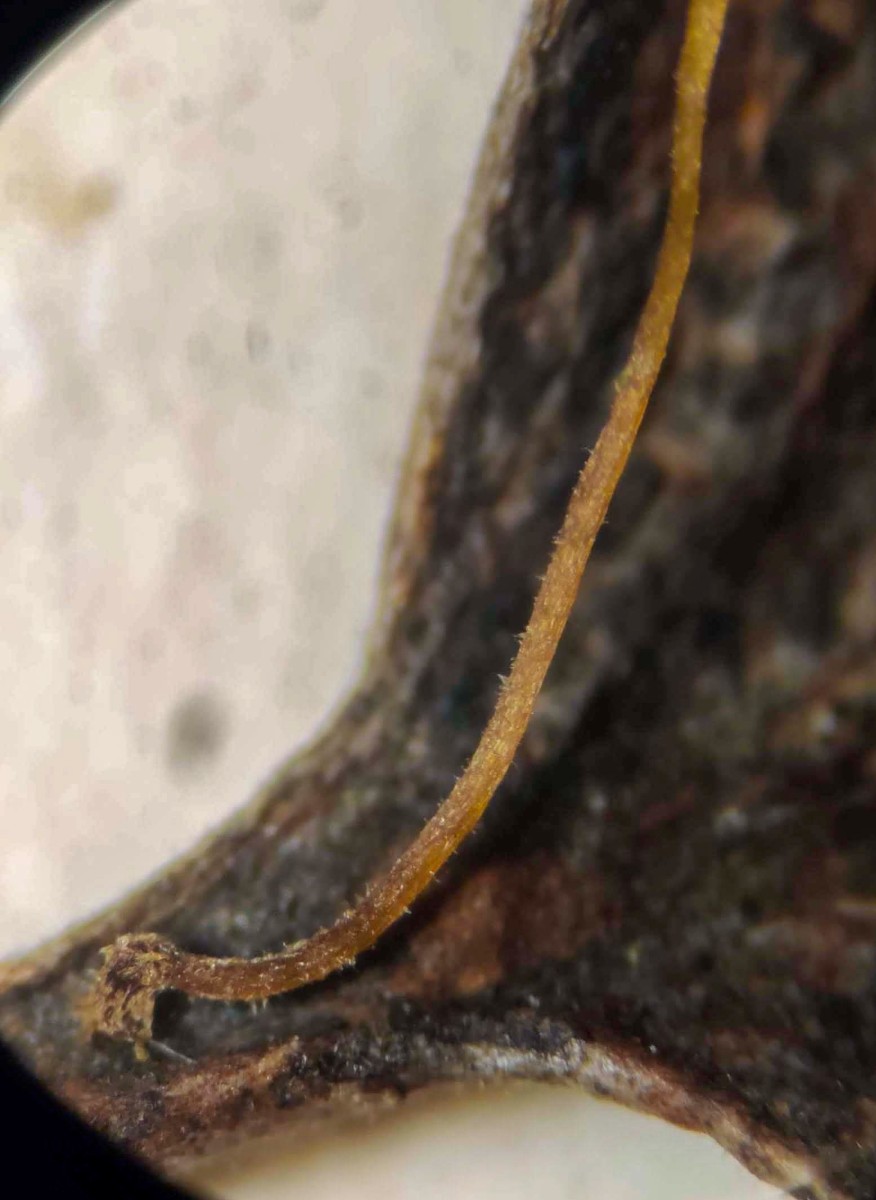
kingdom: Fungi
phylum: Basidiomycota
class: Agaricomycetes
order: Agaricales
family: Physalacriaceae
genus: Rhizomarasmius
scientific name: Rhizomarasmius setosus
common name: bøgeblads-bruskhat
